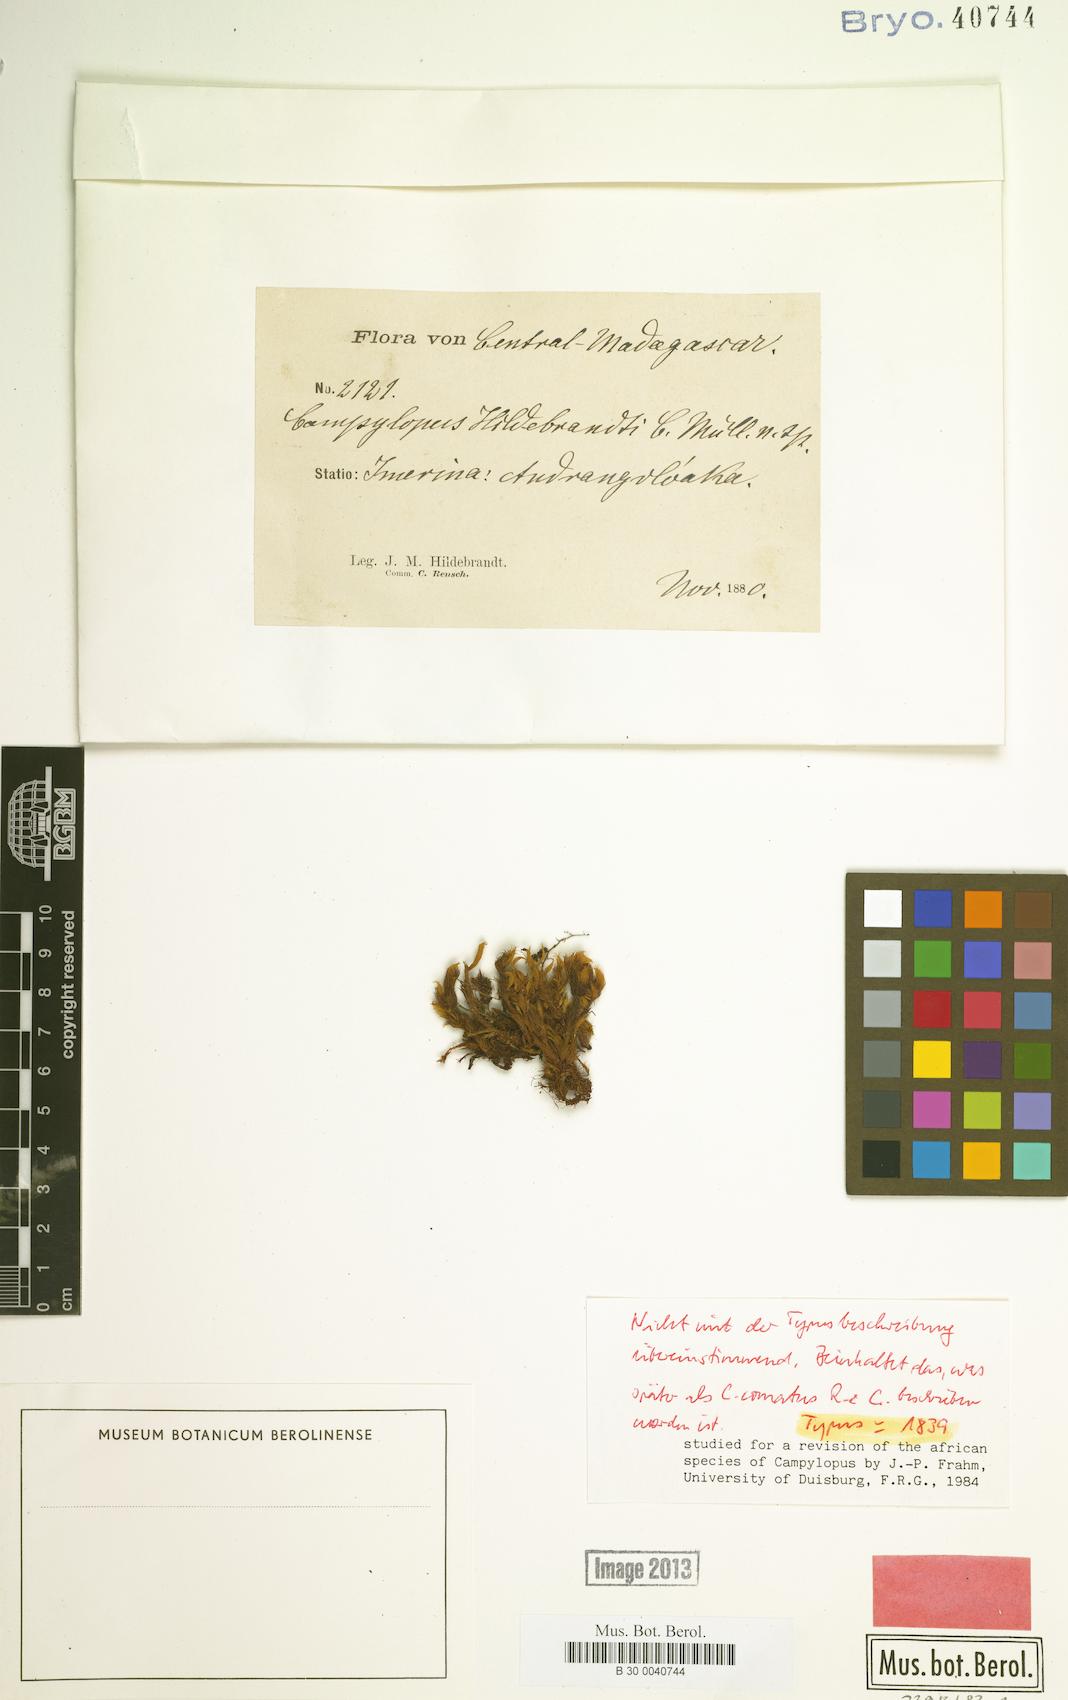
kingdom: Plantae
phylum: Bryophyta
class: Bryopsida
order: Dicranales
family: Leucobryaceae
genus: Campylopus
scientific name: Campylopus hildebrandtii
